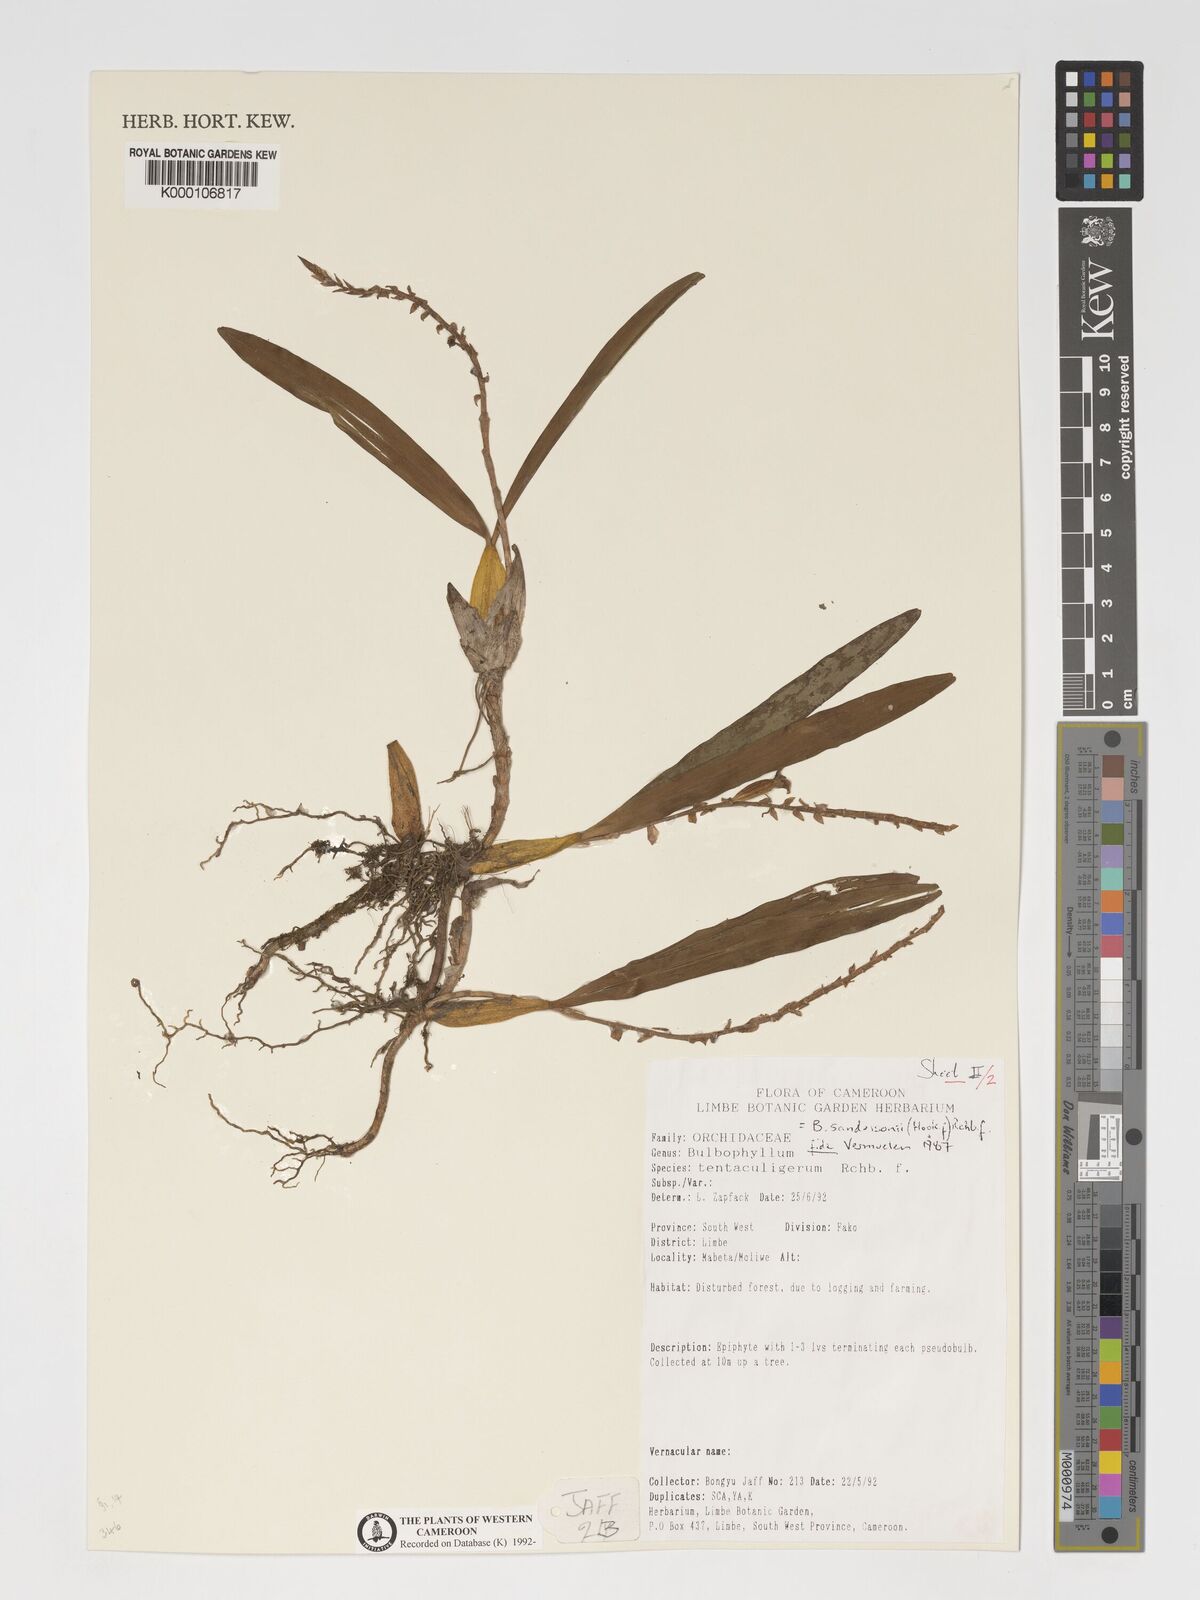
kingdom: Plantae
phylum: Tracheophyta
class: Liliopsida
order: Asparagales
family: Orchidaceae
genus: Bulbophyllum
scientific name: Bulbophyllum sandersonii
